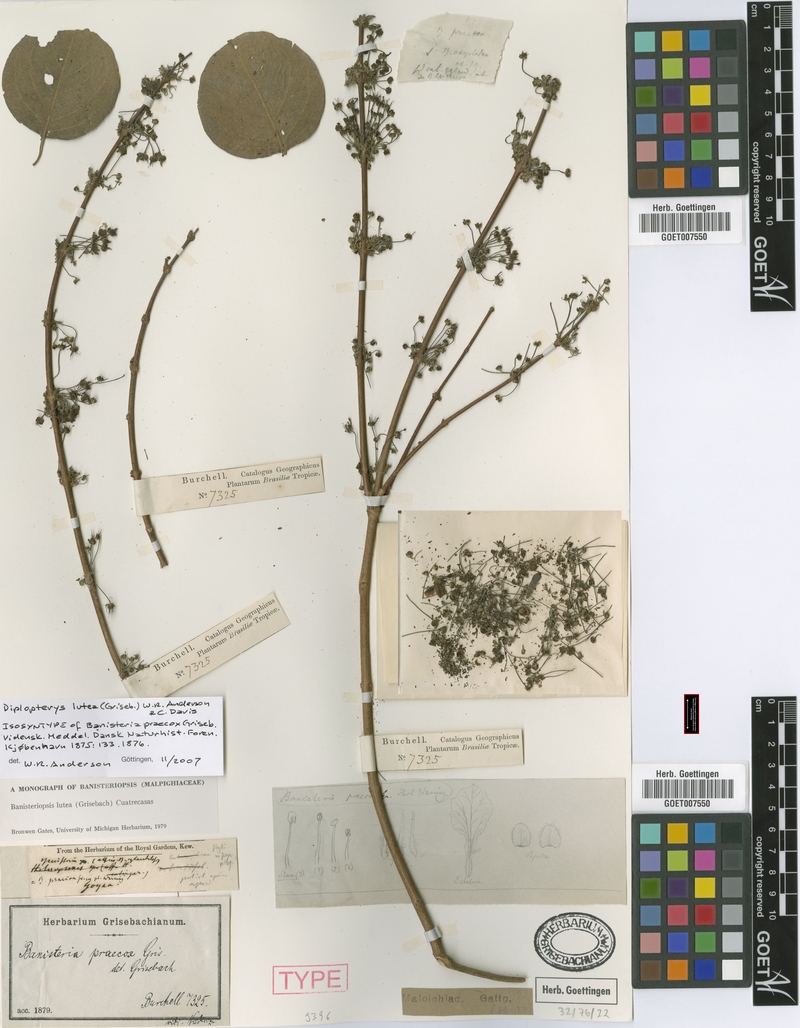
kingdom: Plantae
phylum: Tracheophyta
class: Magnoliopsida
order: Malpighiales
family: Malpighiaceae
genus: Diplopterys
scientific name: Diplopterys lutea
